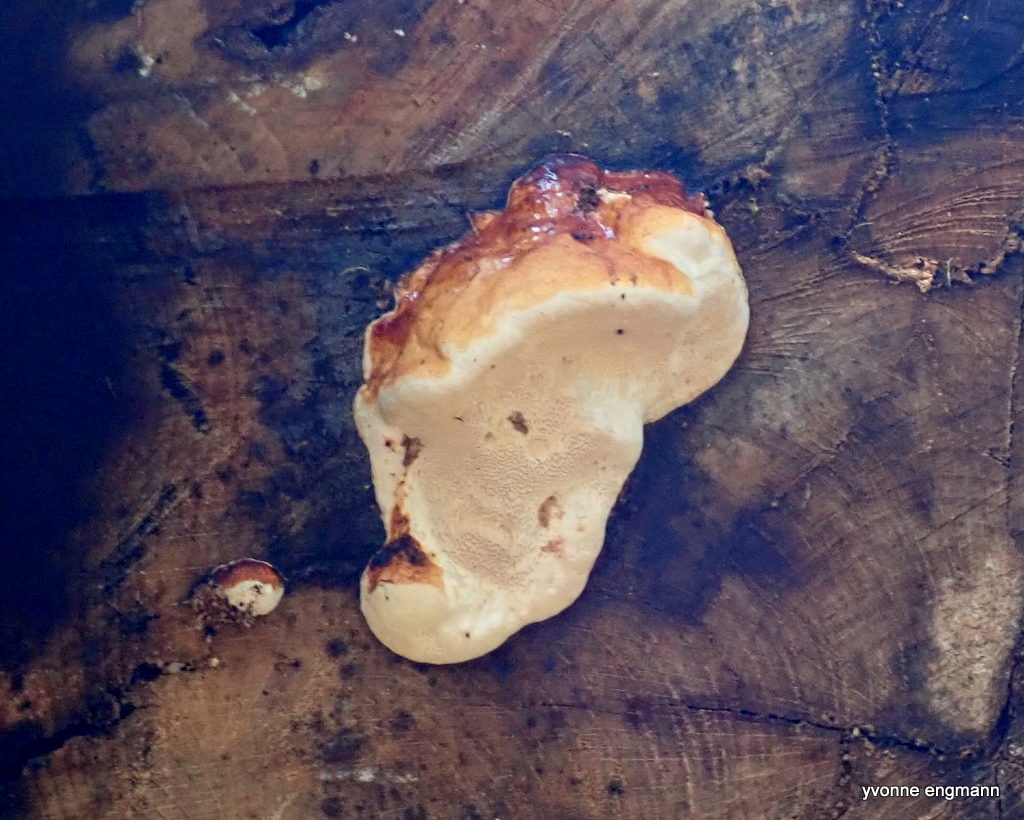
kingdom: Fungi
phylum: Basidiomycota
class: Agaricomycetes
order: Polyporales
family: Fomitopsidaceae
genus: Fomitopsis
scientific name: Fomitopsis pinicola
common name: randbæltet hovporesvamp
